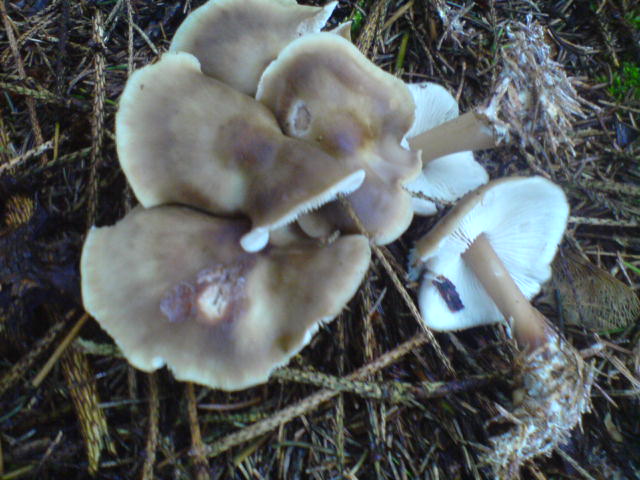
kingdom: Fungi
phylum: Basidiomycota
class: Agaricomycetes
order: Agaricales
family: Omphalotaceae
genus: Rhodocollybia
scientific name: Rhodocollybia asema
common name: horngrå fladhat
